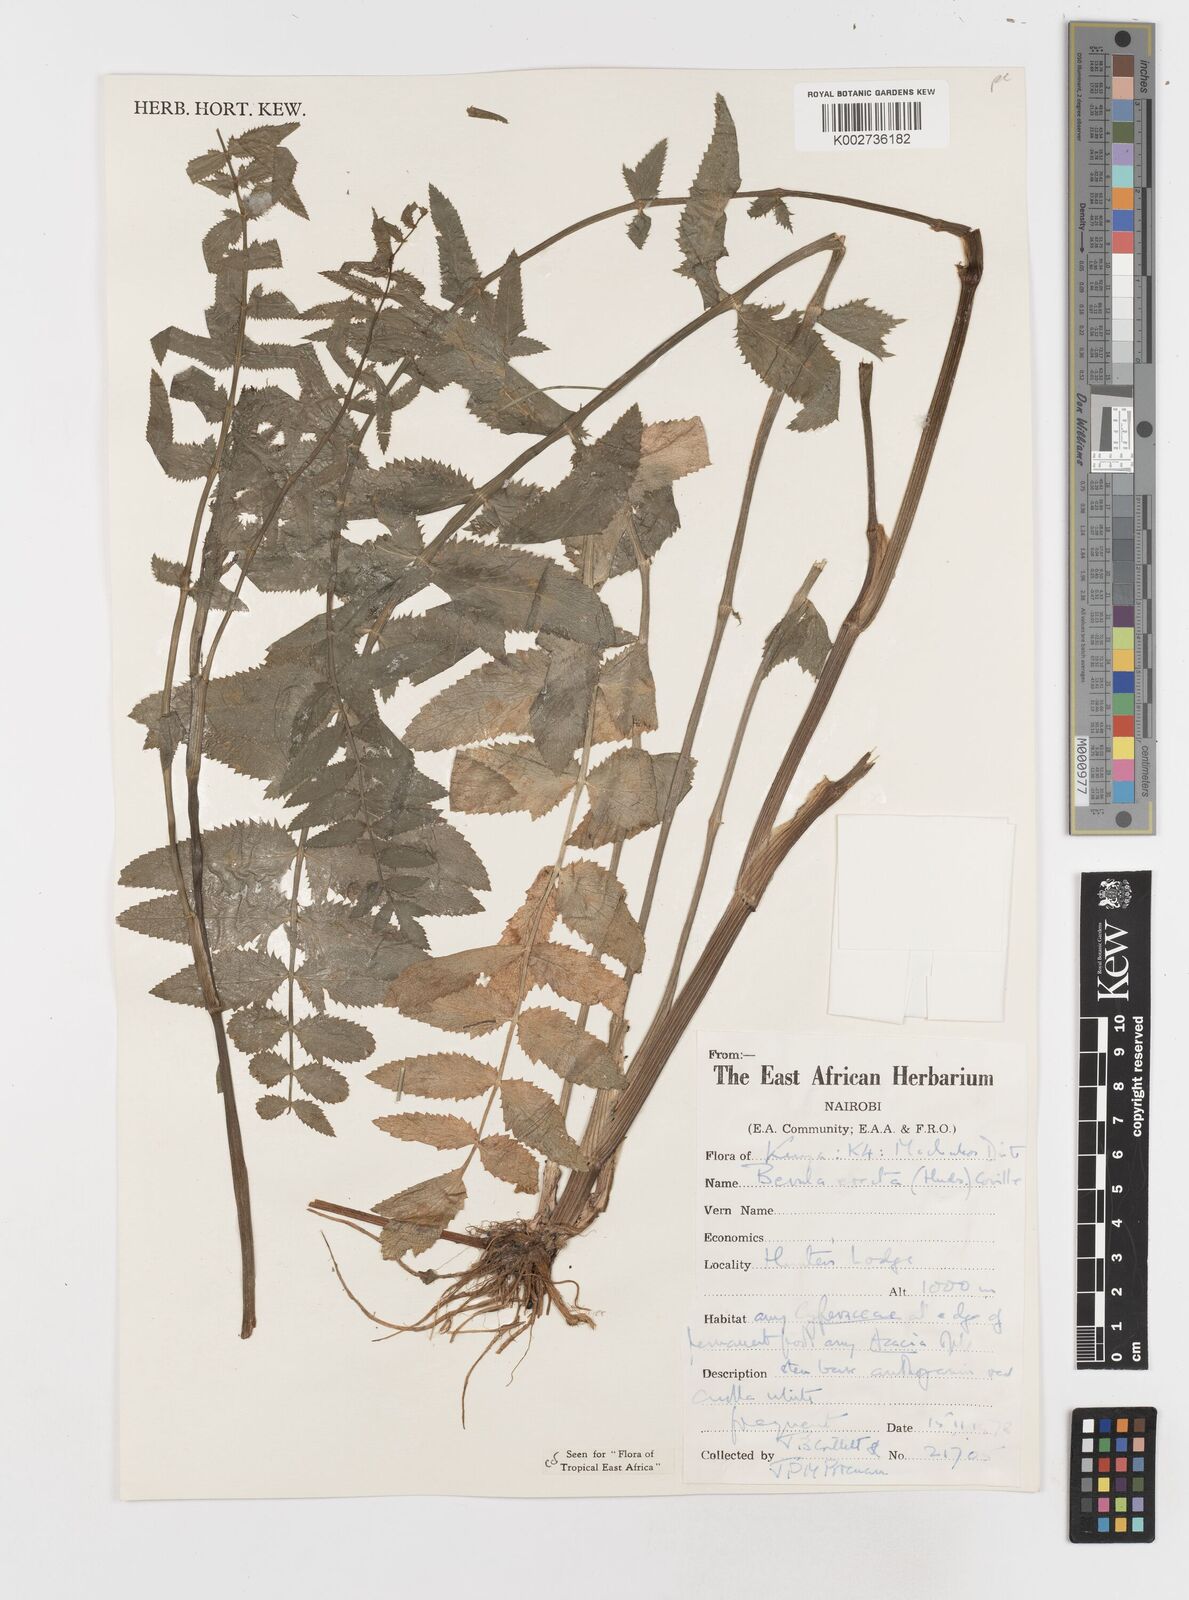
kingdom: Plantae
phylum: Tracheophyta
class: Magnoliopsida
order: Apiales
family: Apiaceae
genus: Berula
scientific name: Berula erecta
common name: Lesser water-parsnip
